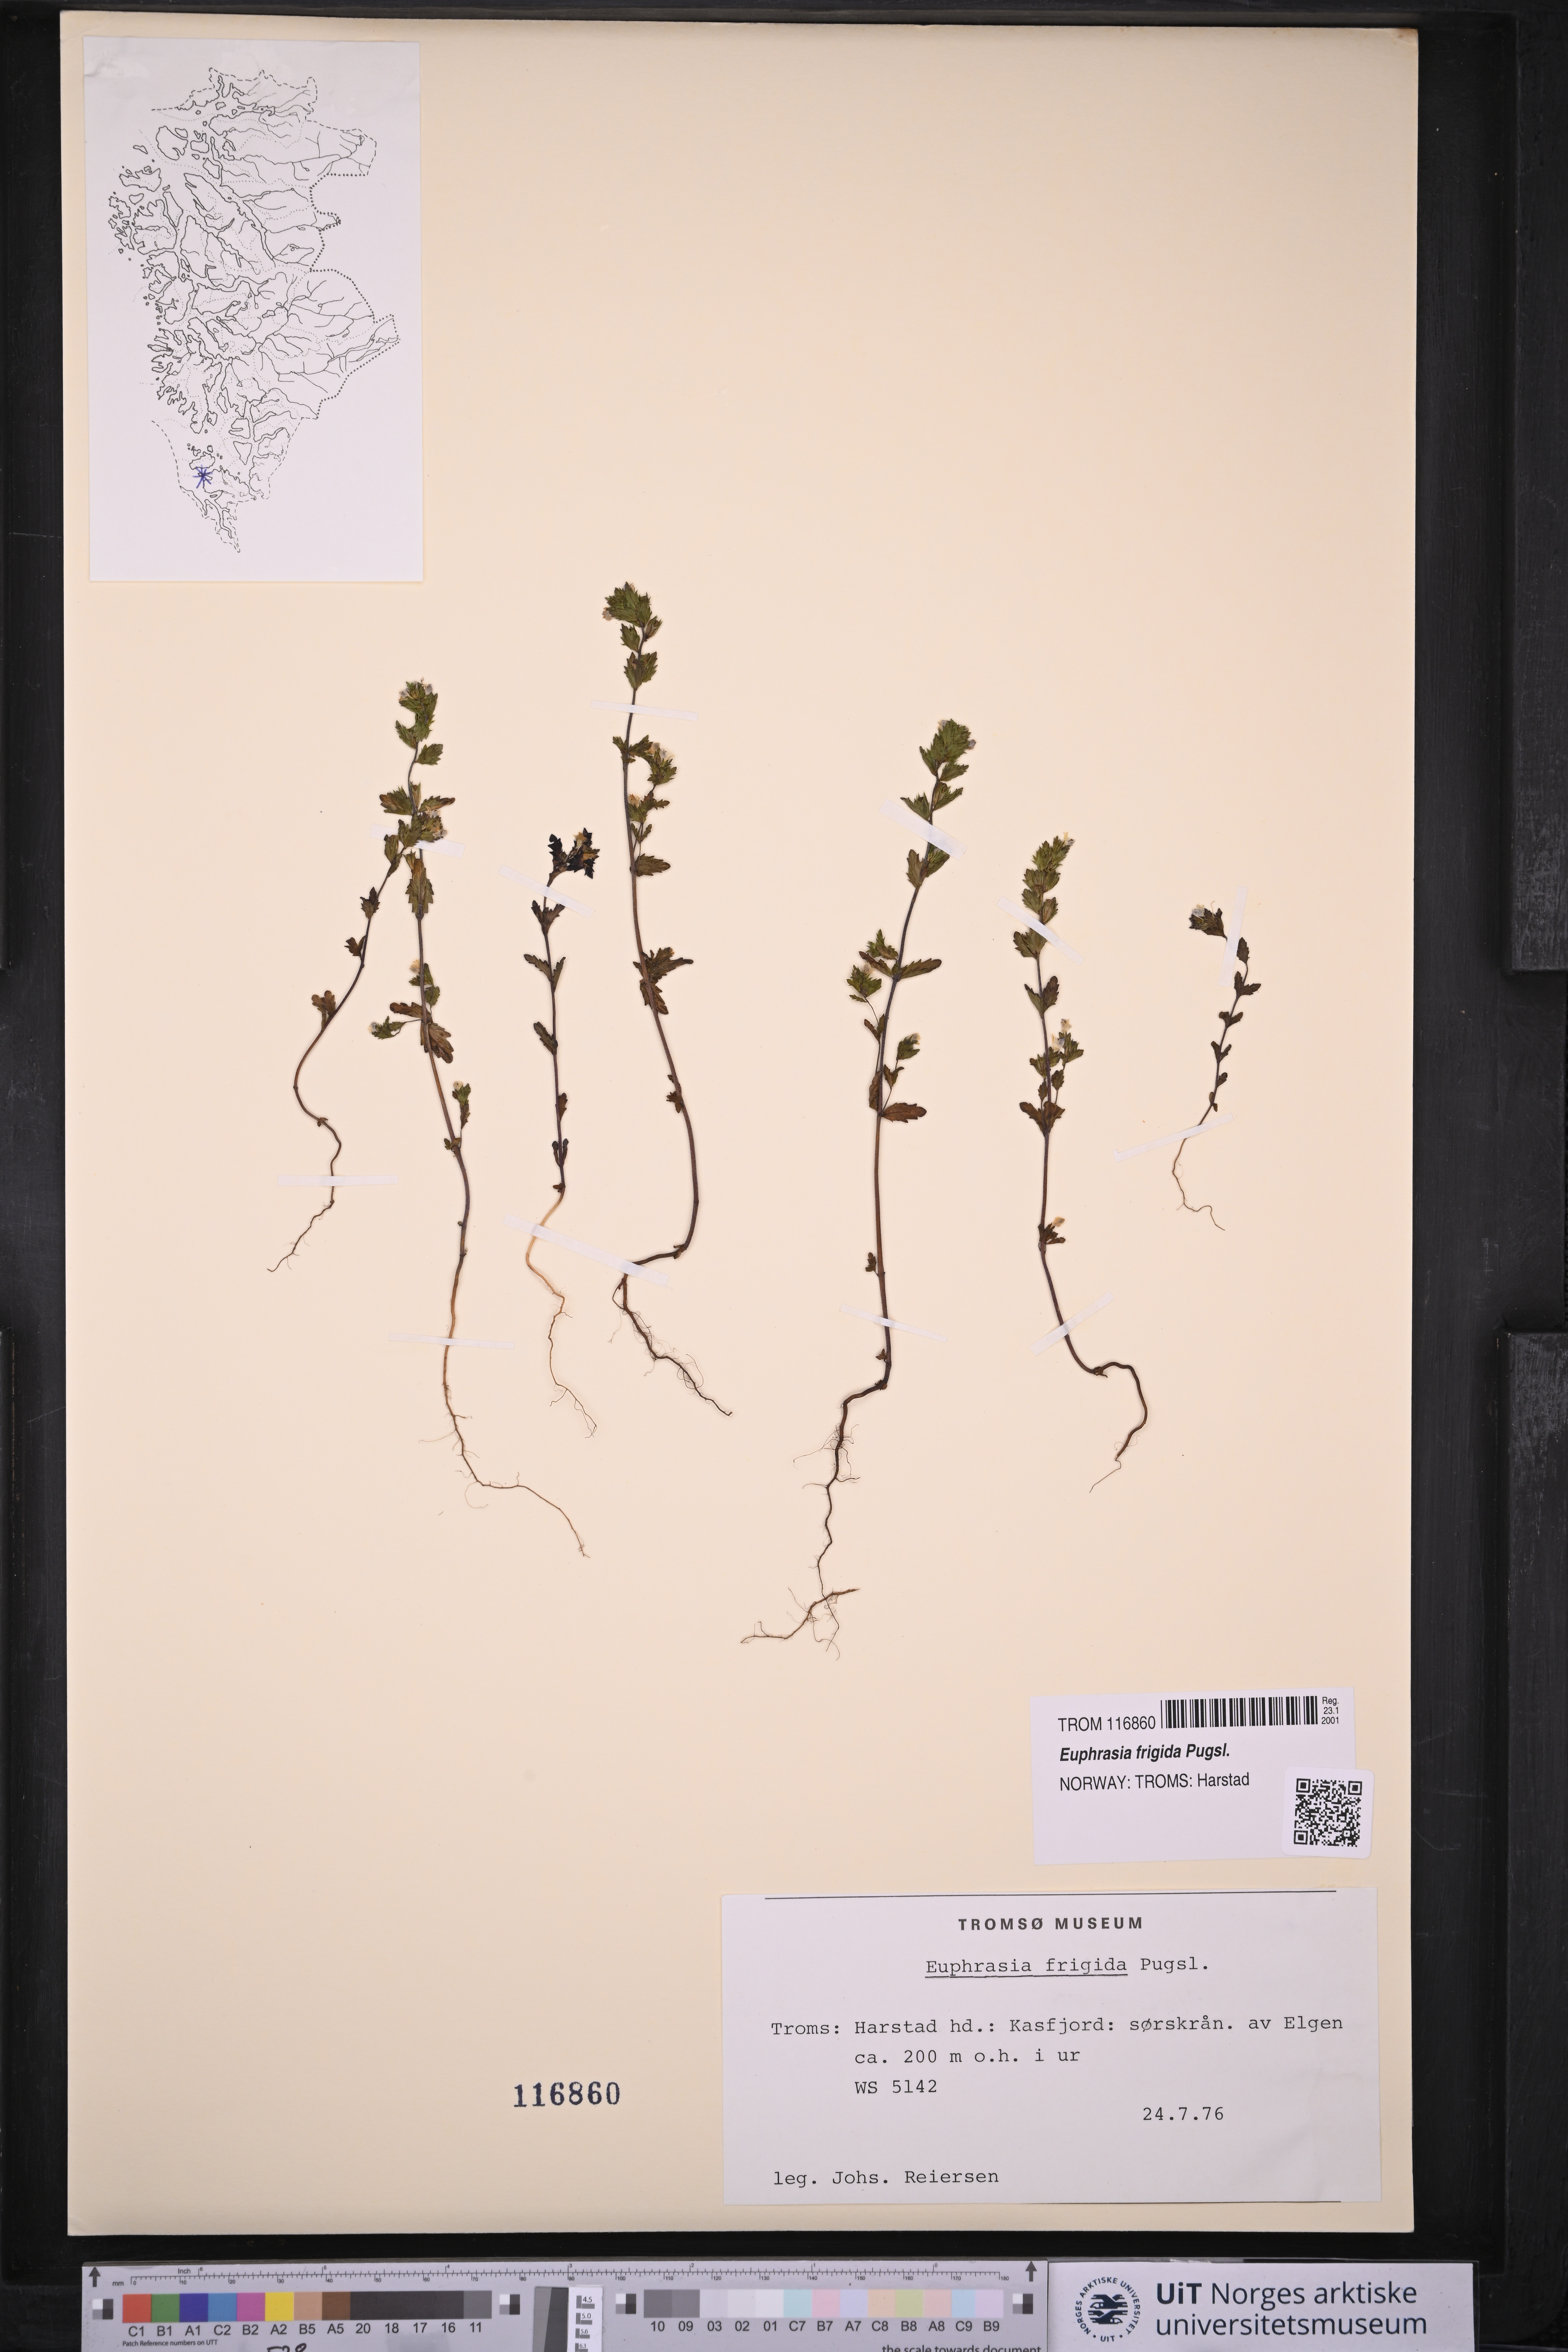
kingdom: Plantae
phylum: Tracheophyta
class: Magnoliopsida
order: Lamiales
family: Orobanchaceae
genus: Euphrasia
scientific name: Euphrasia frigida
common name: An eyebright
